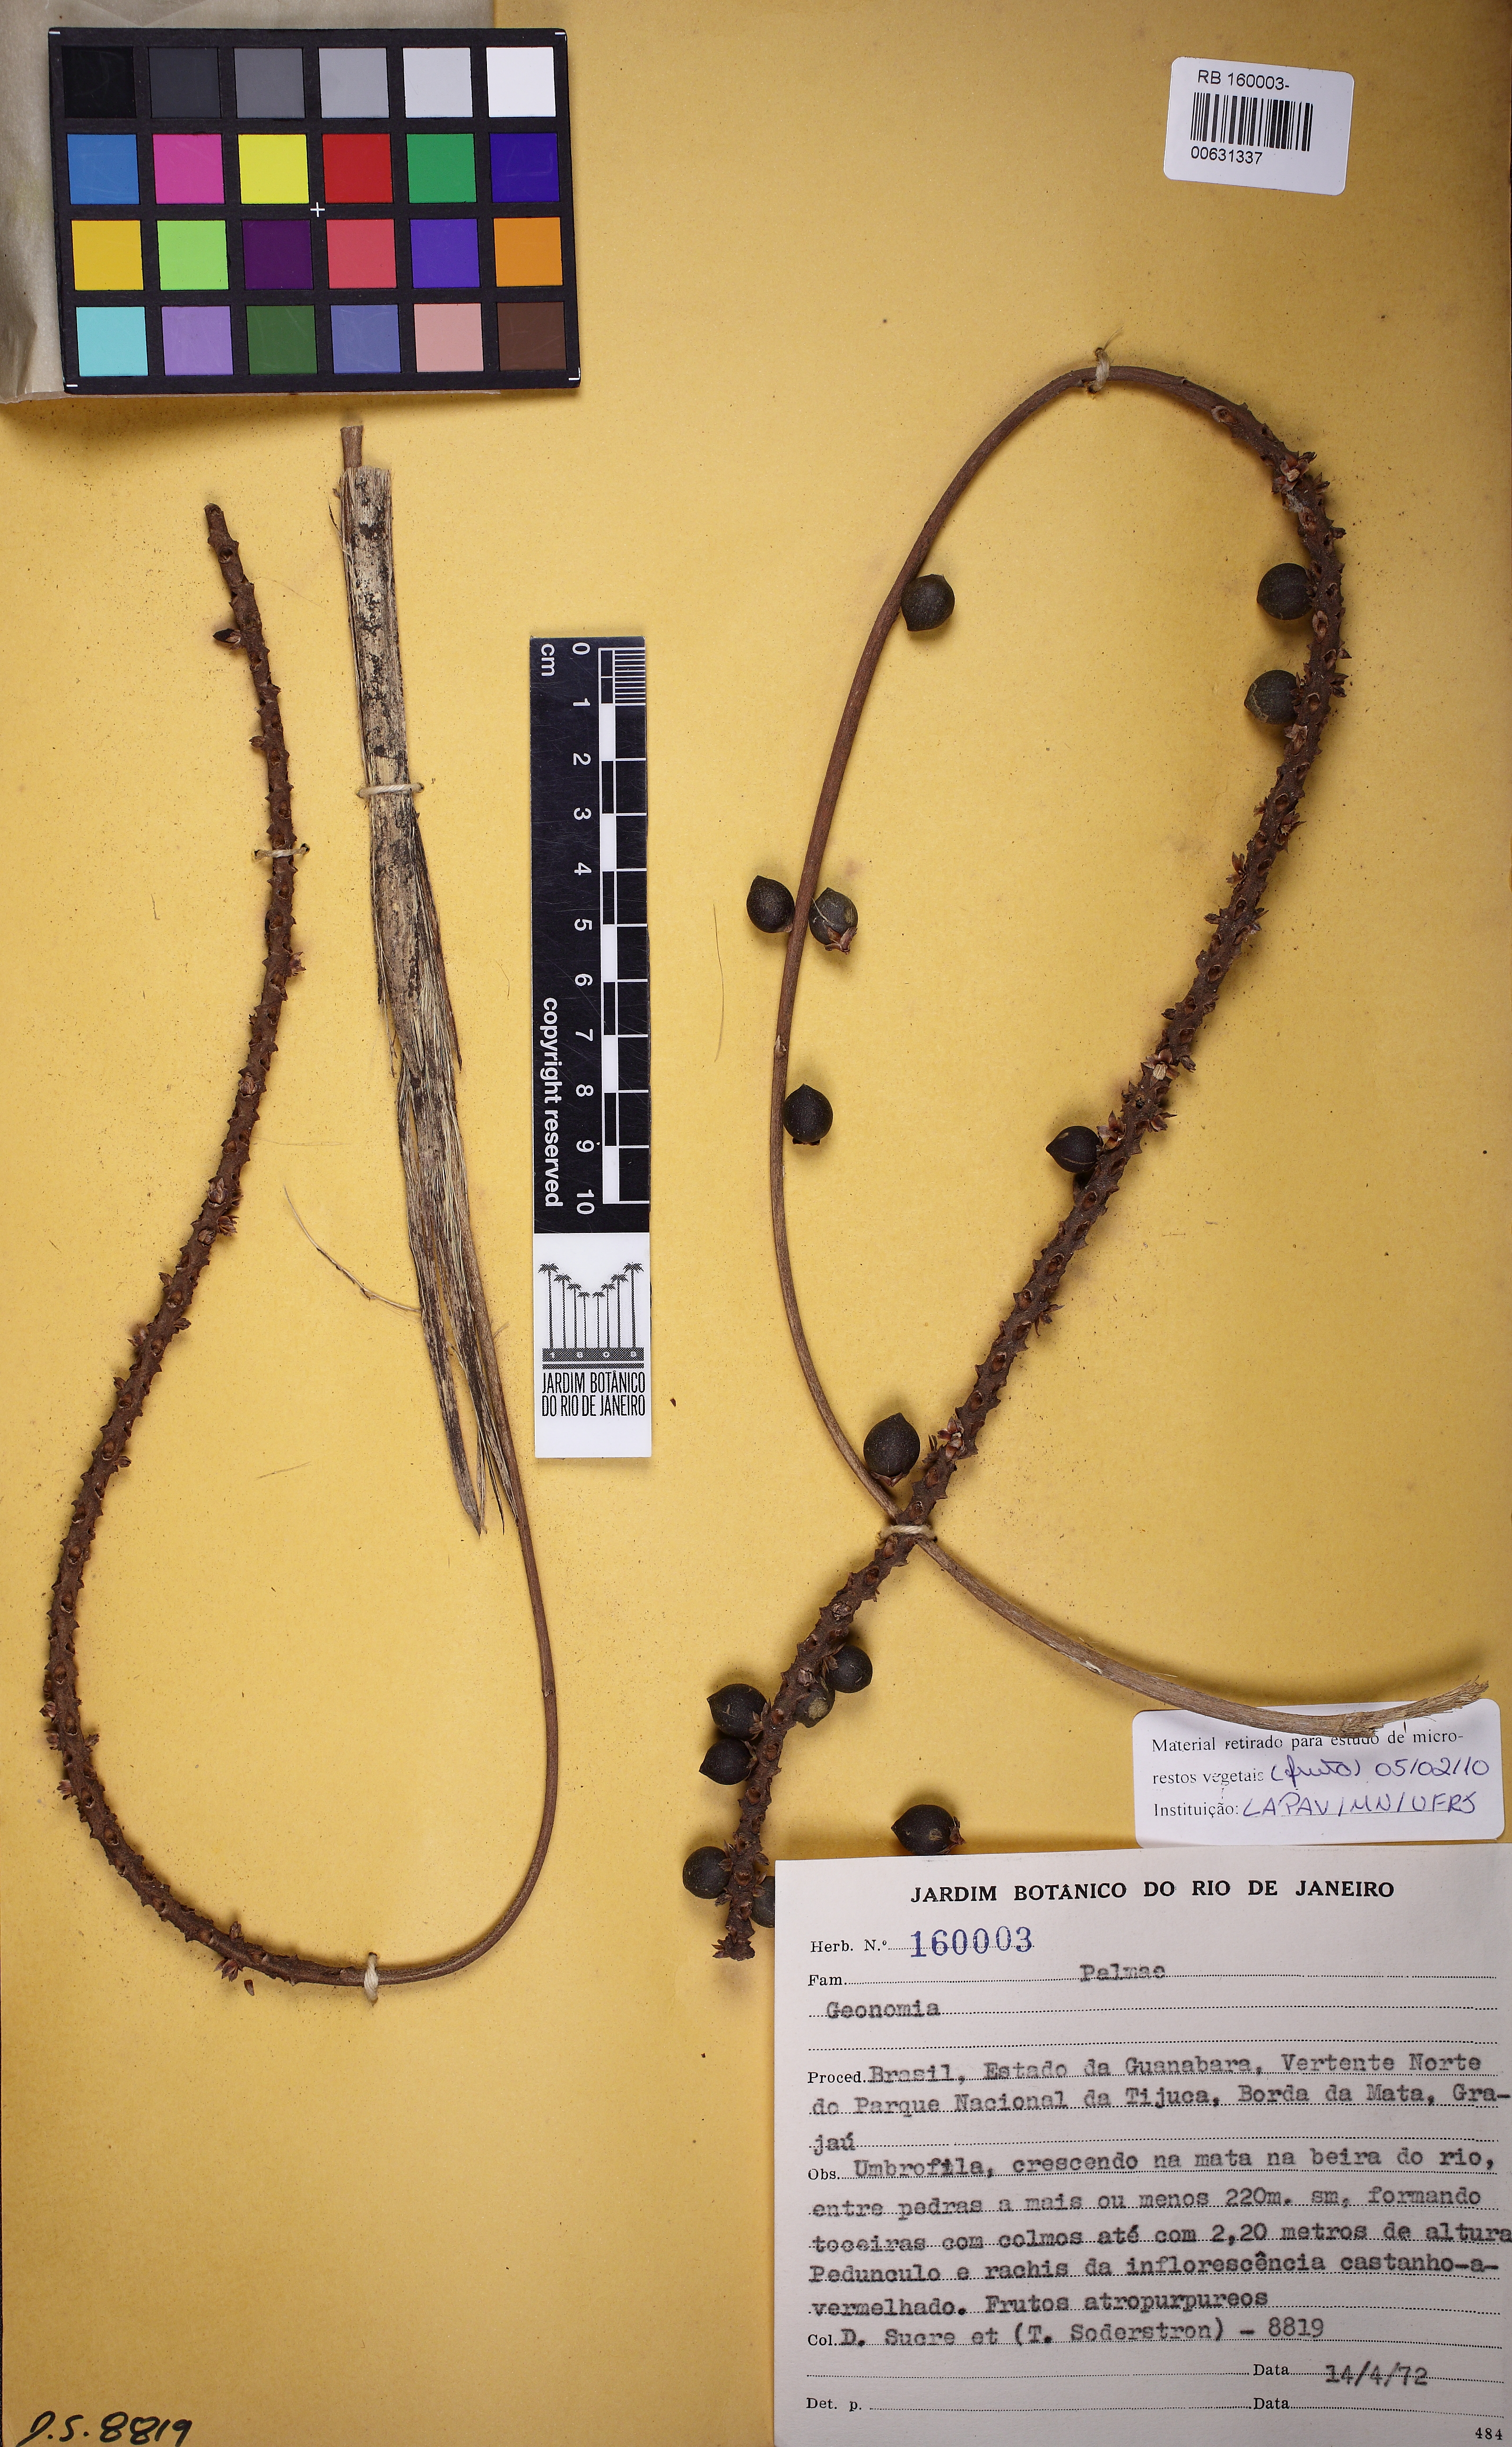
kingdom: Plantae
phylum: Tracheophyta
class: Liliopsida
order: Arecales
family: Arecaceae
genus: Geonoma
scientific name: Geonoma elegans
